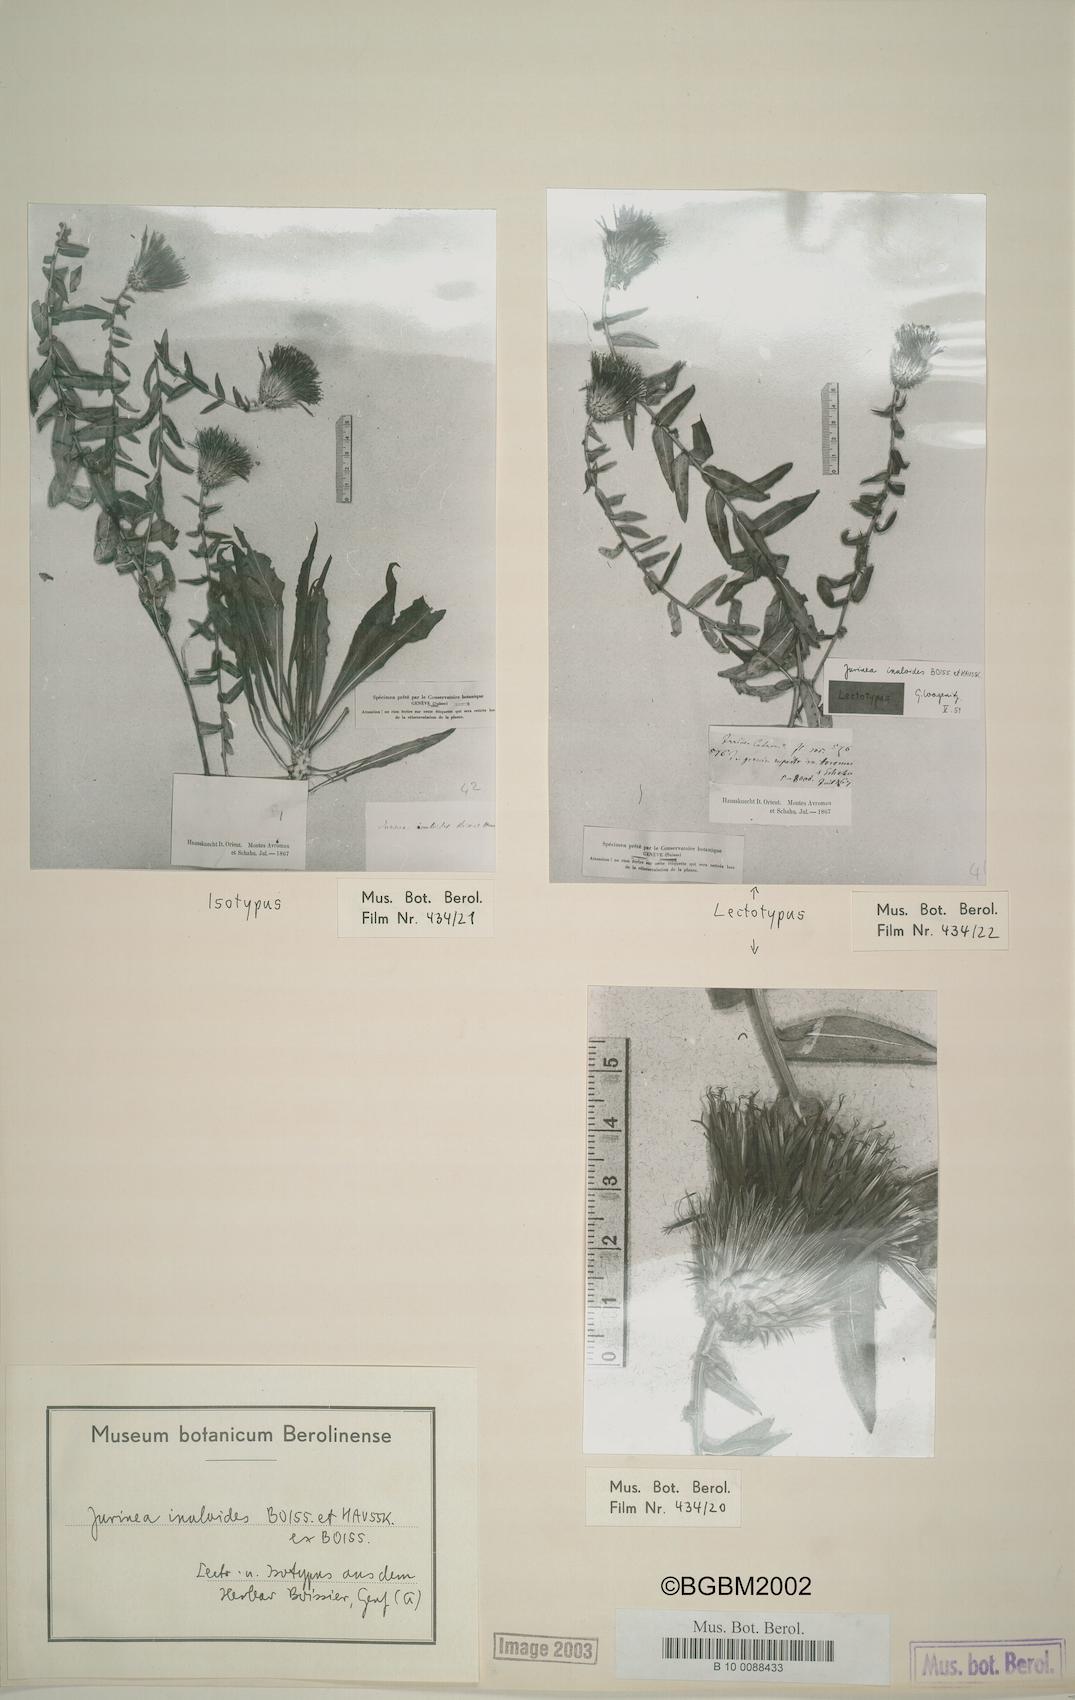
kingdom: Plantae
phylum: Tracheophyta
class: Magnoliopsida
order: Asterales
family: Asteraceae
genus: Jurinea
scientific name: Jurinea inuloides
